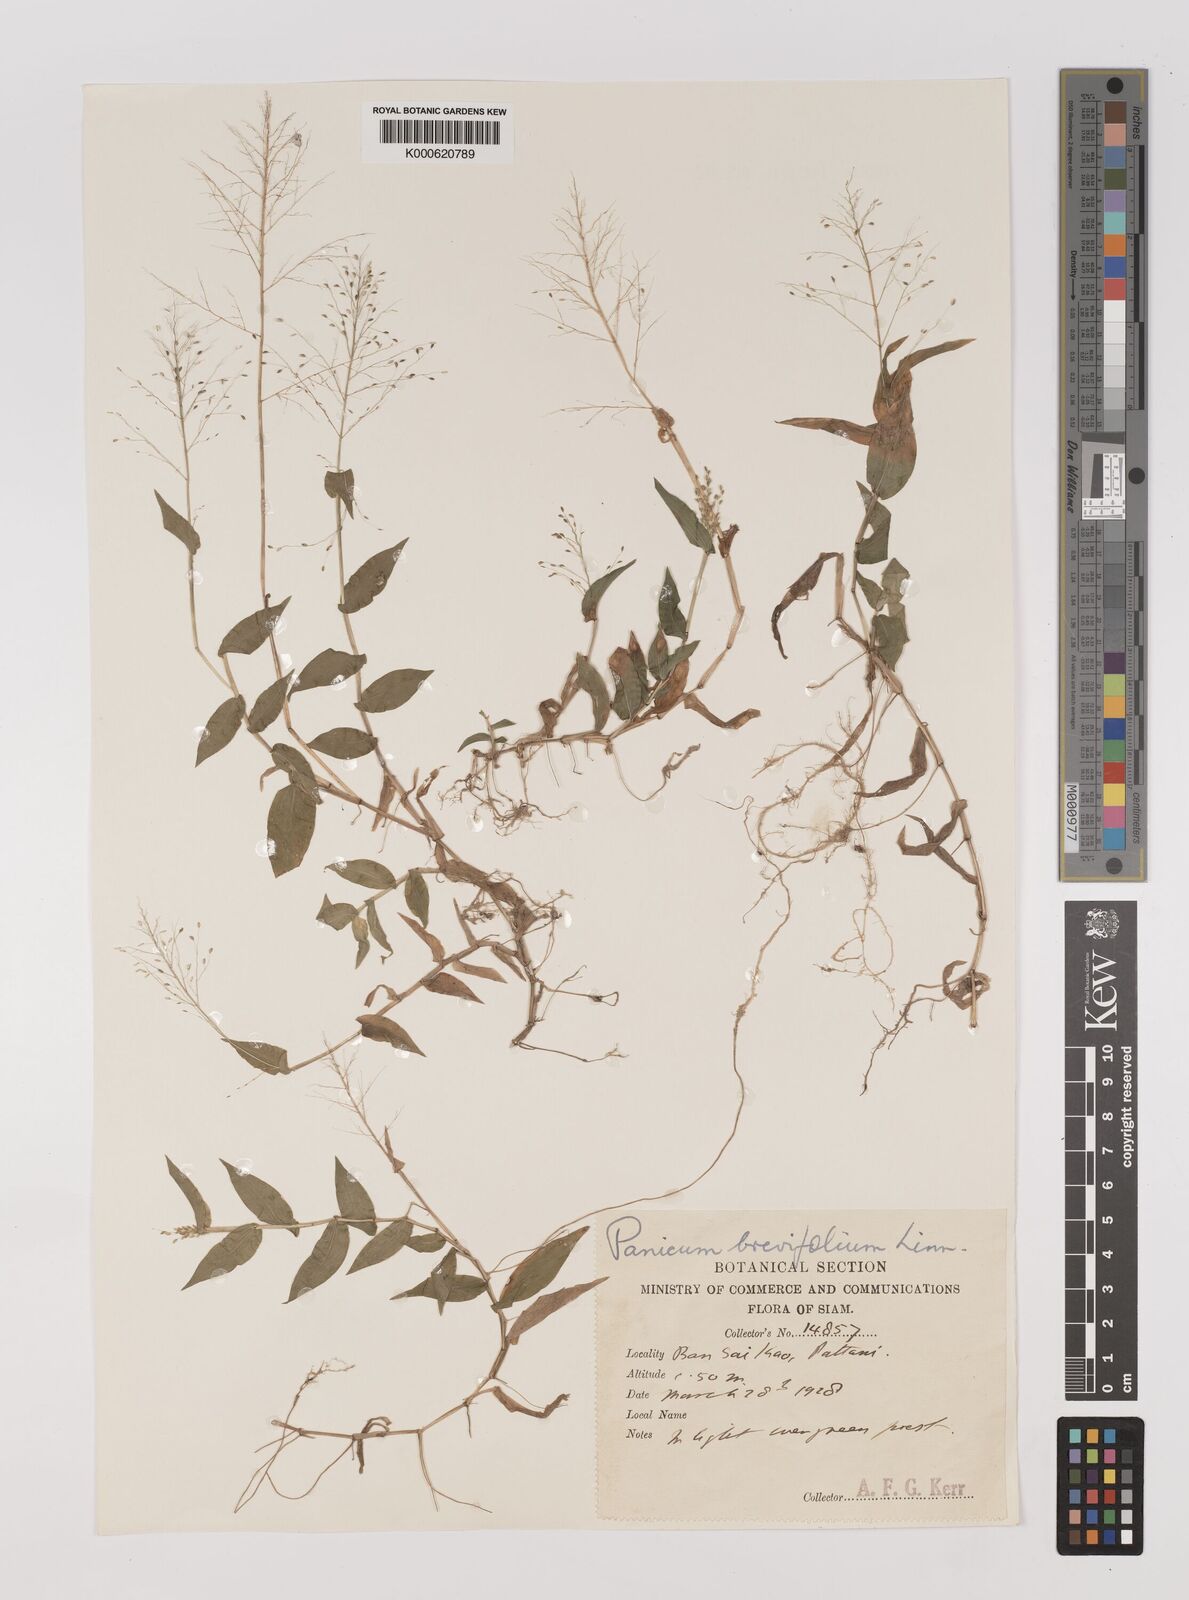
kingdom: Plantae
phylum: Tracheophyta
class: Liliopsida
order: Poales
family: Poaceae
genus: Panicum
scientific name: Panicum brevifolium
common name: Shortleaf panic grass
